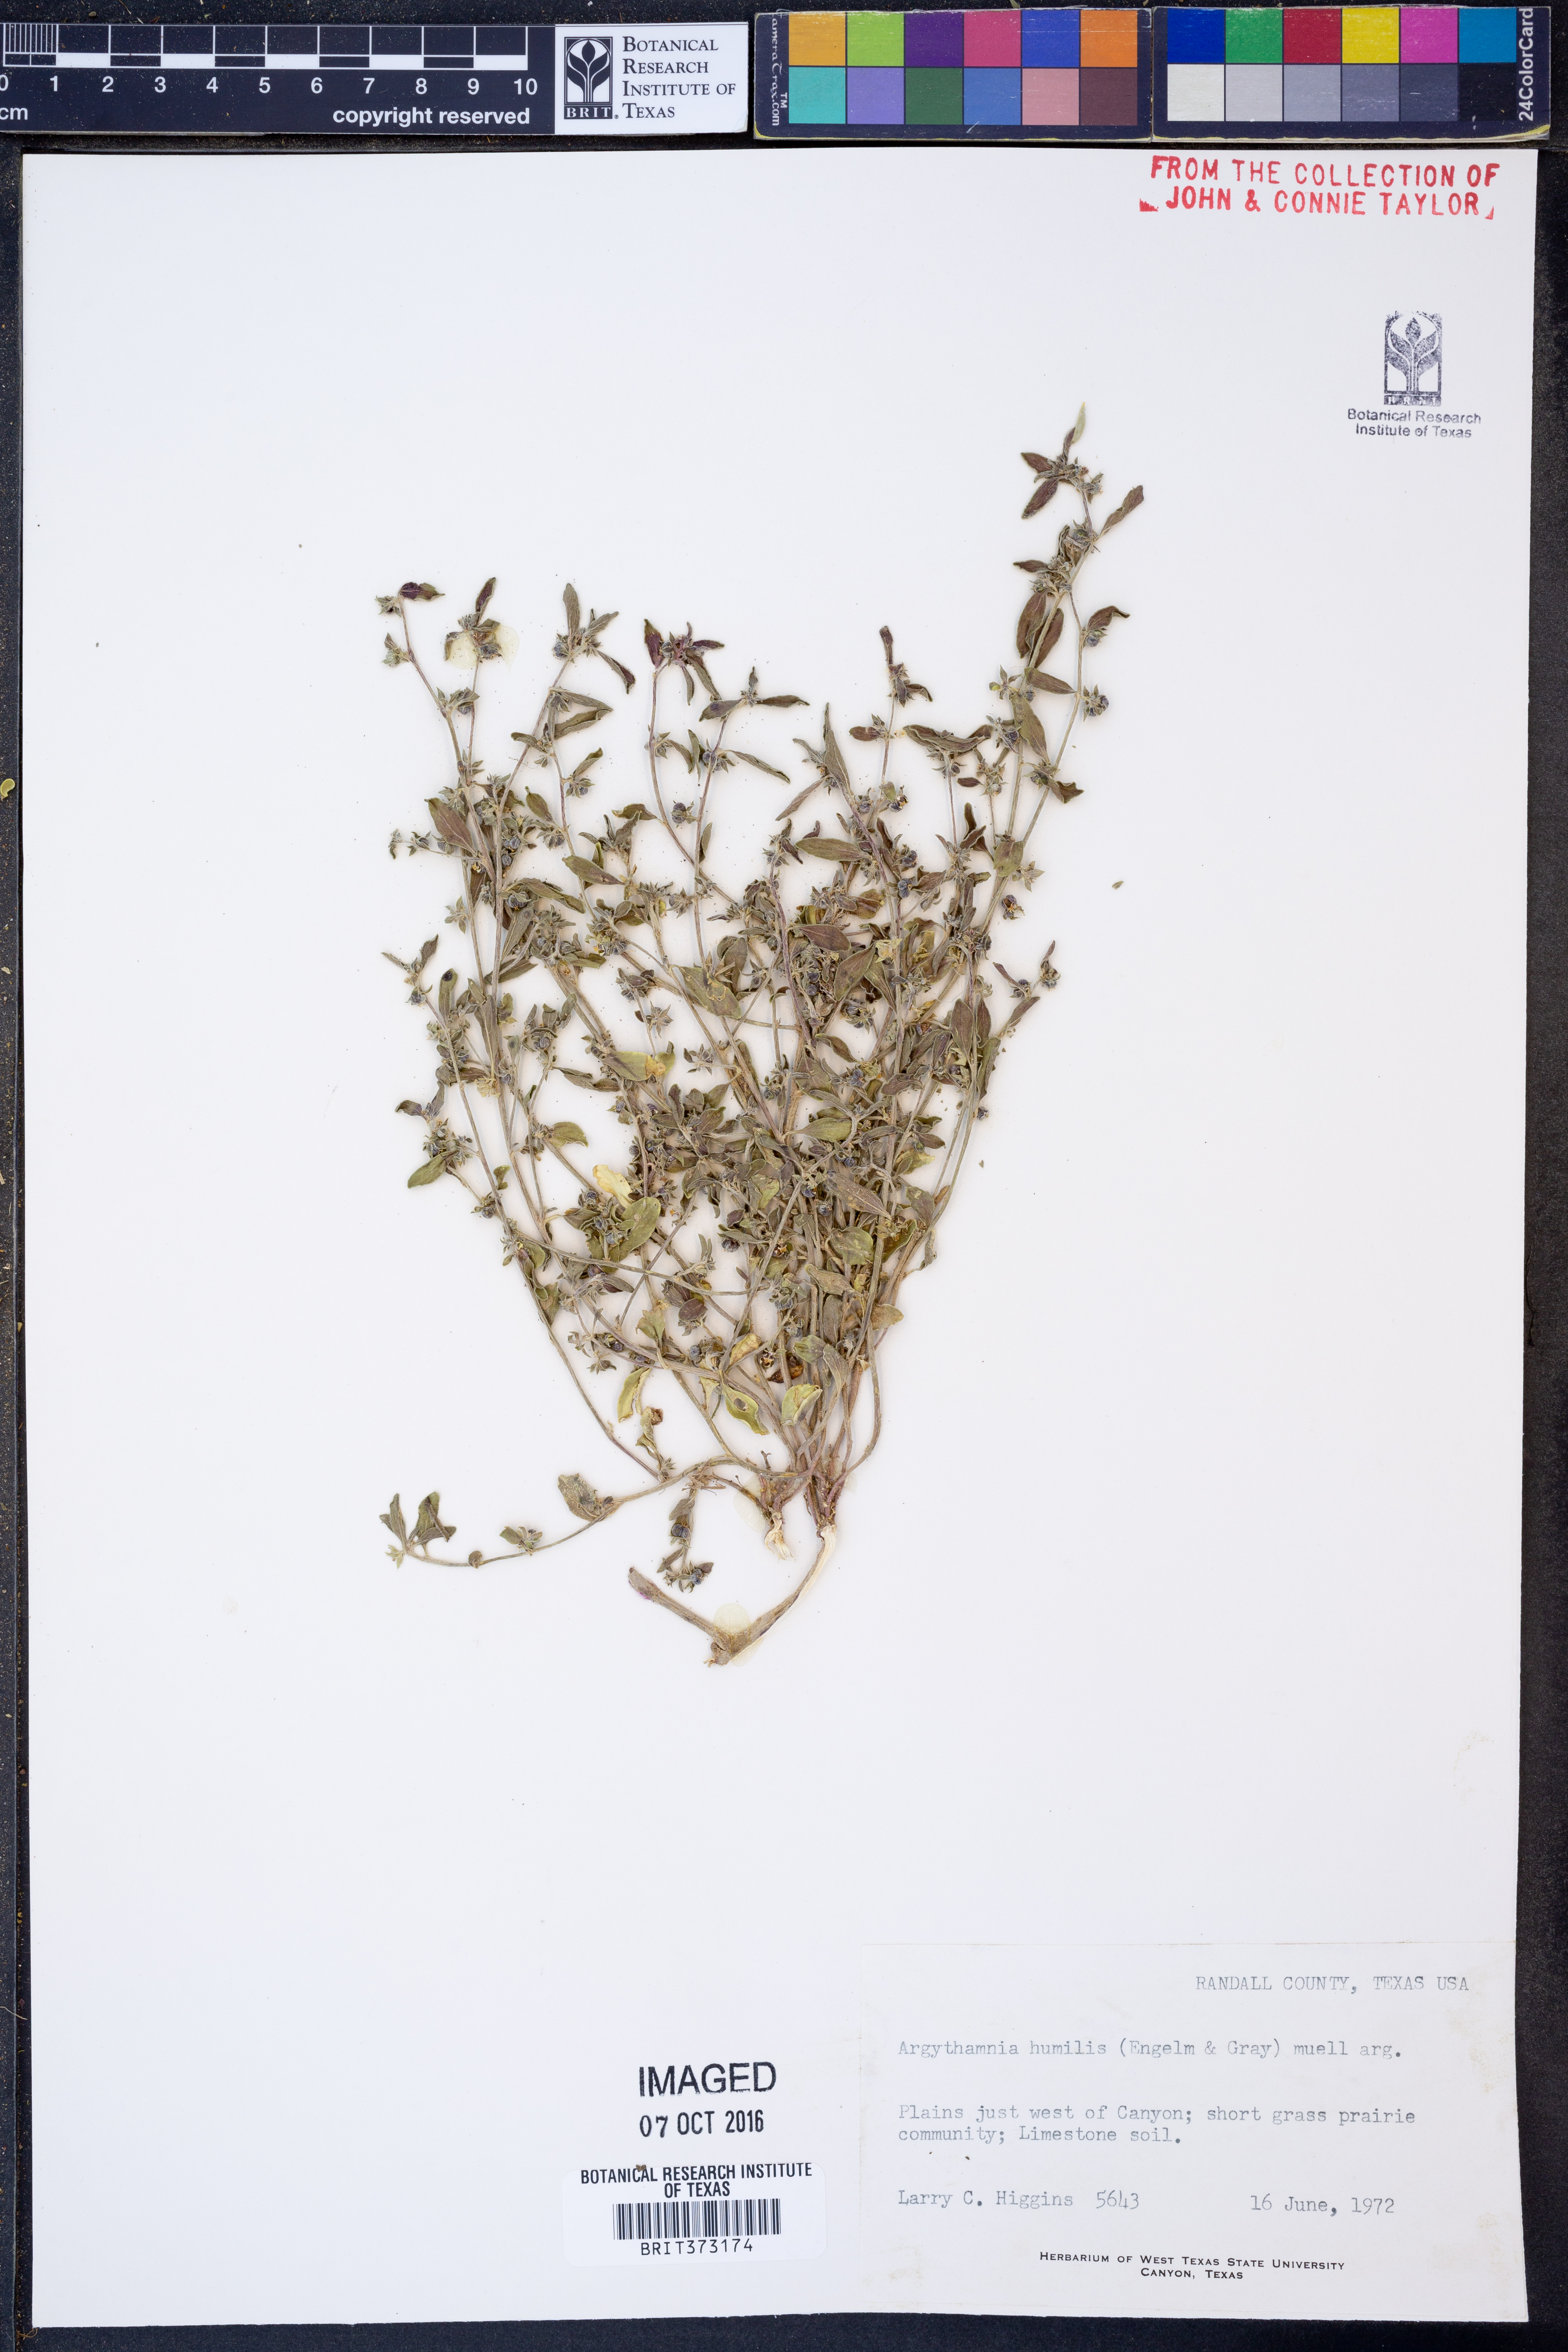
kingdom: Plantae
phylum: Tracheophyta
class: Magnoliopsida
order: Malpighiales
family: Euphorbiaceae
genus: Ditaxis
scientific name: Ditaxis humilis
